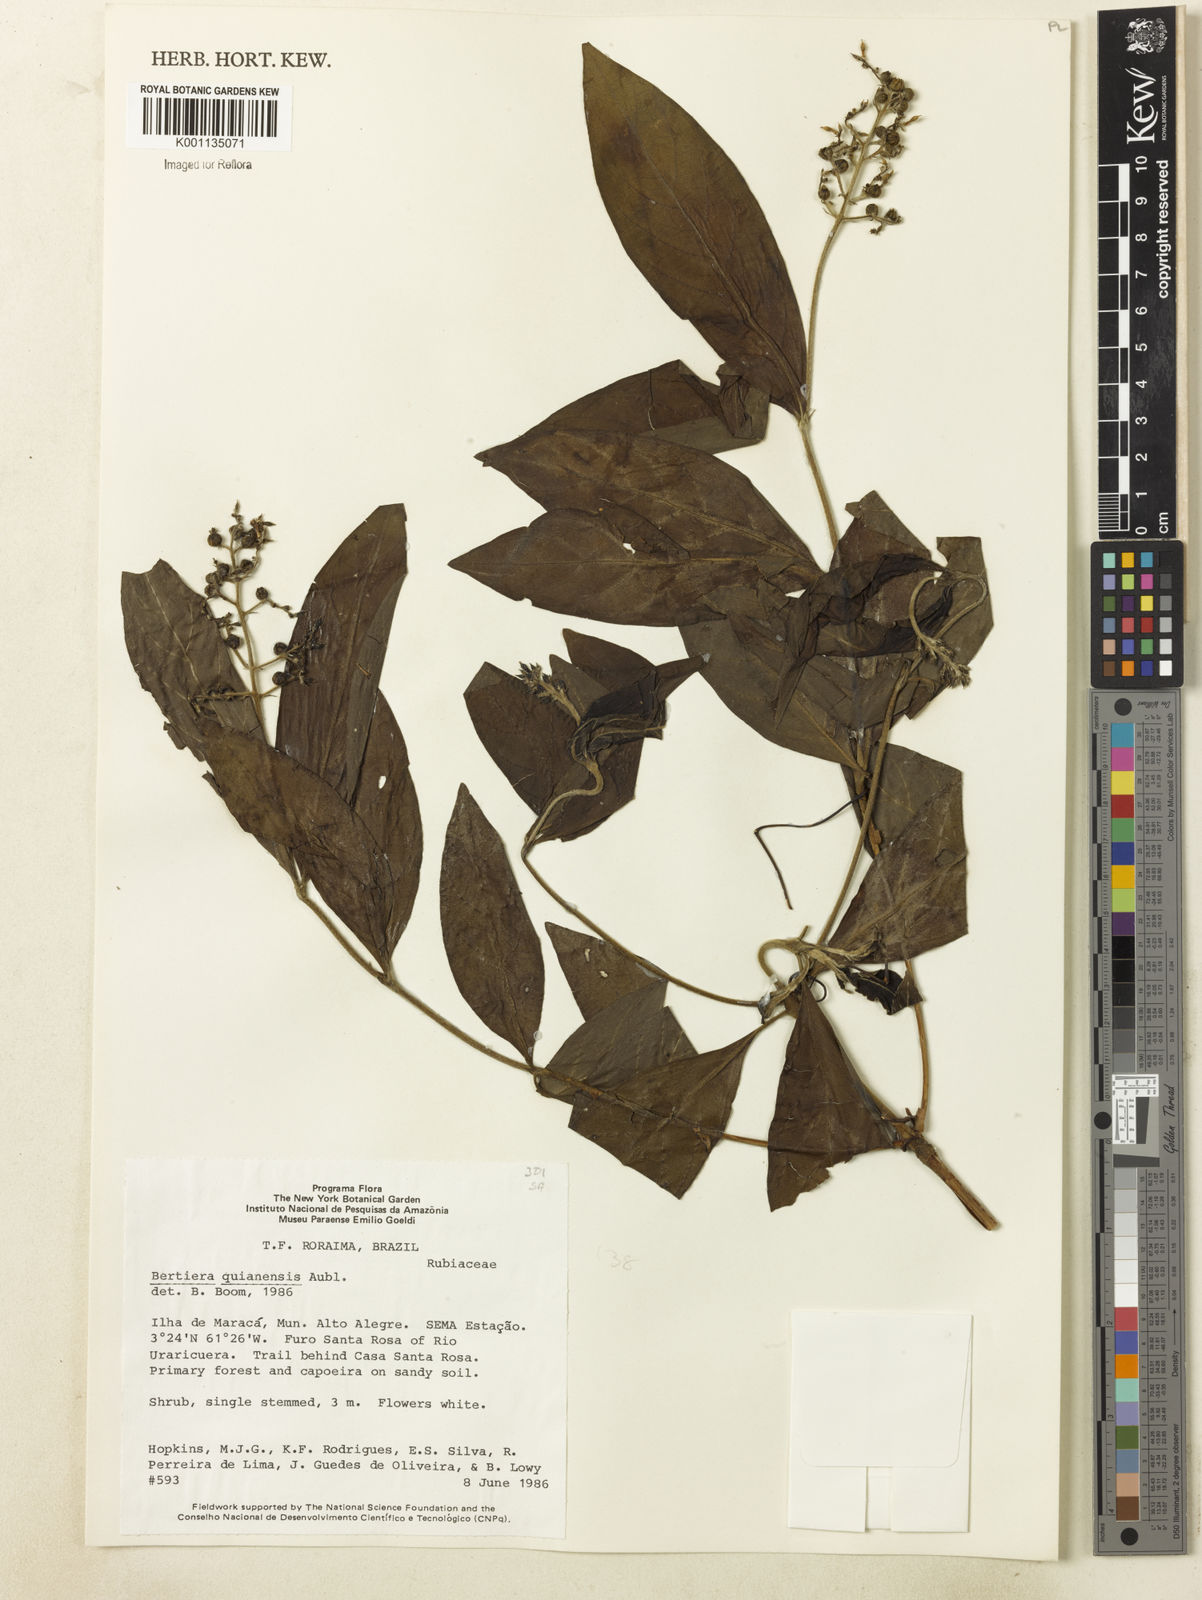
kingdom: Plantae
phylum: Tracheophyta
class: Magnoliopsida
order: Gentianales
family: Rubiaceae
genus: Bertiera
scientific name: Bertiera guianensis
